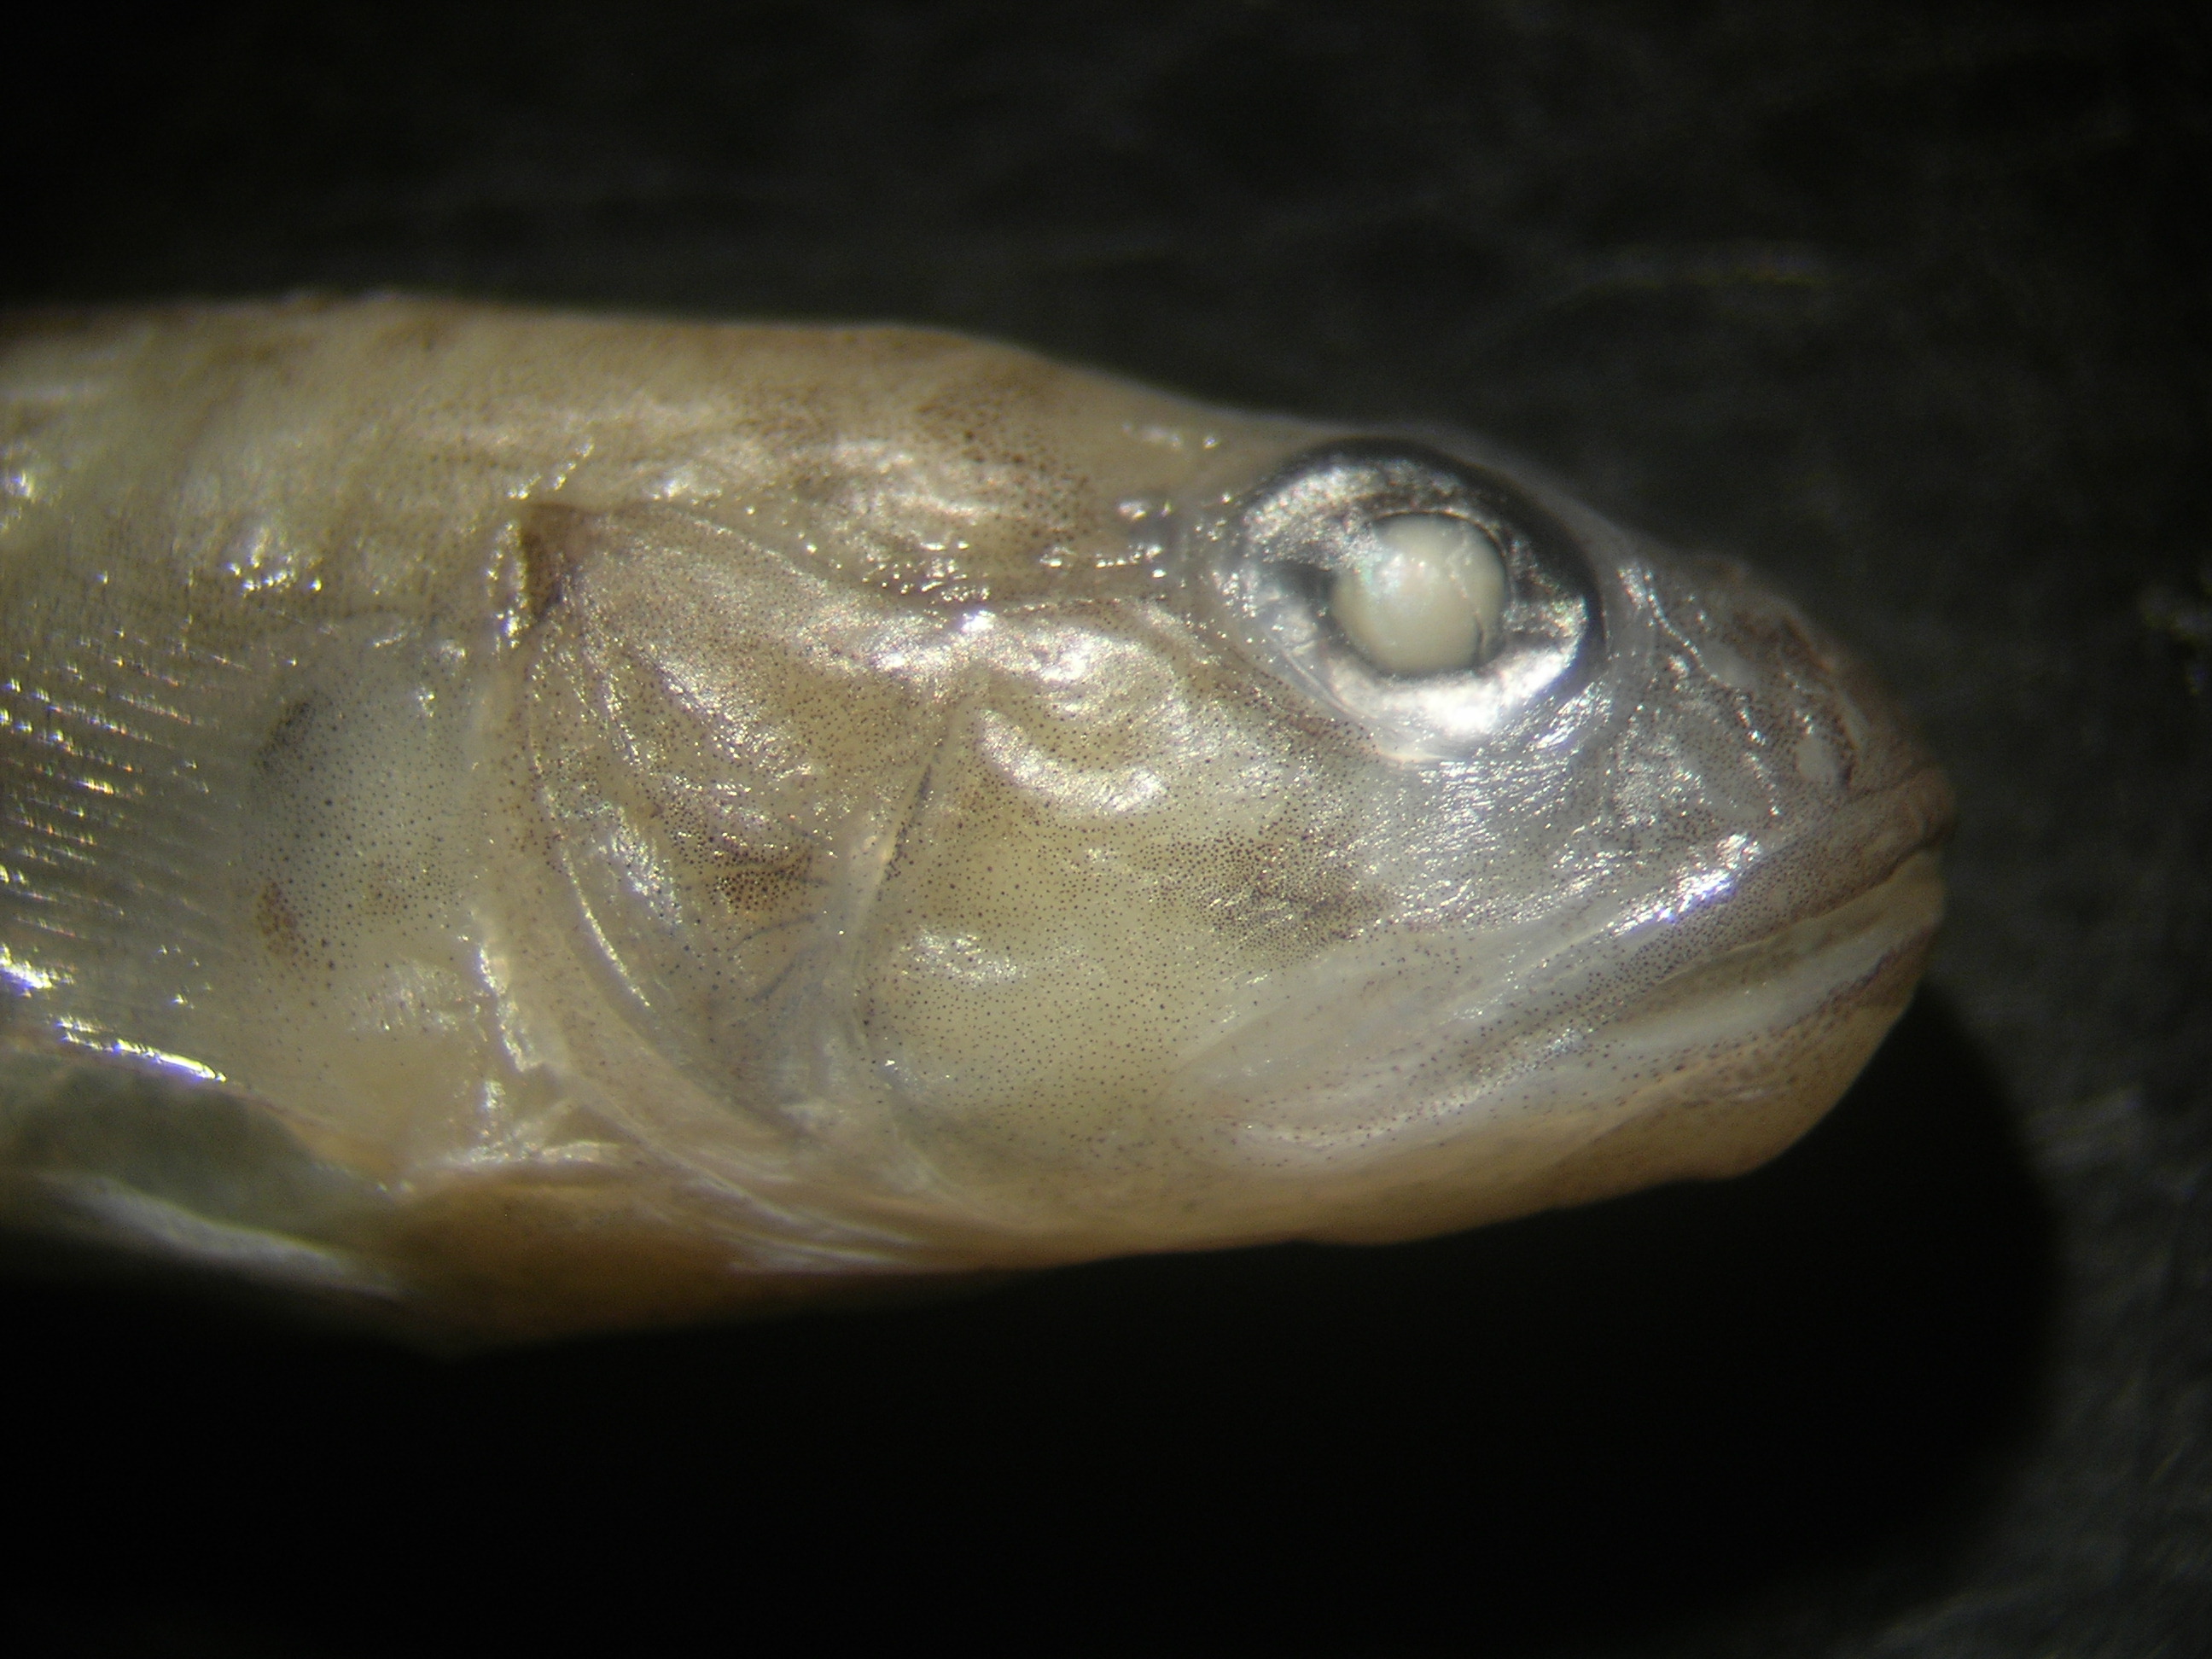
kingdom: Animalia
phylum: Chordata
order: Perciformes
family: Gobiidae
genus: Oligolepis
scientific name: Oligolepis keiensis
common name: Kei goby
